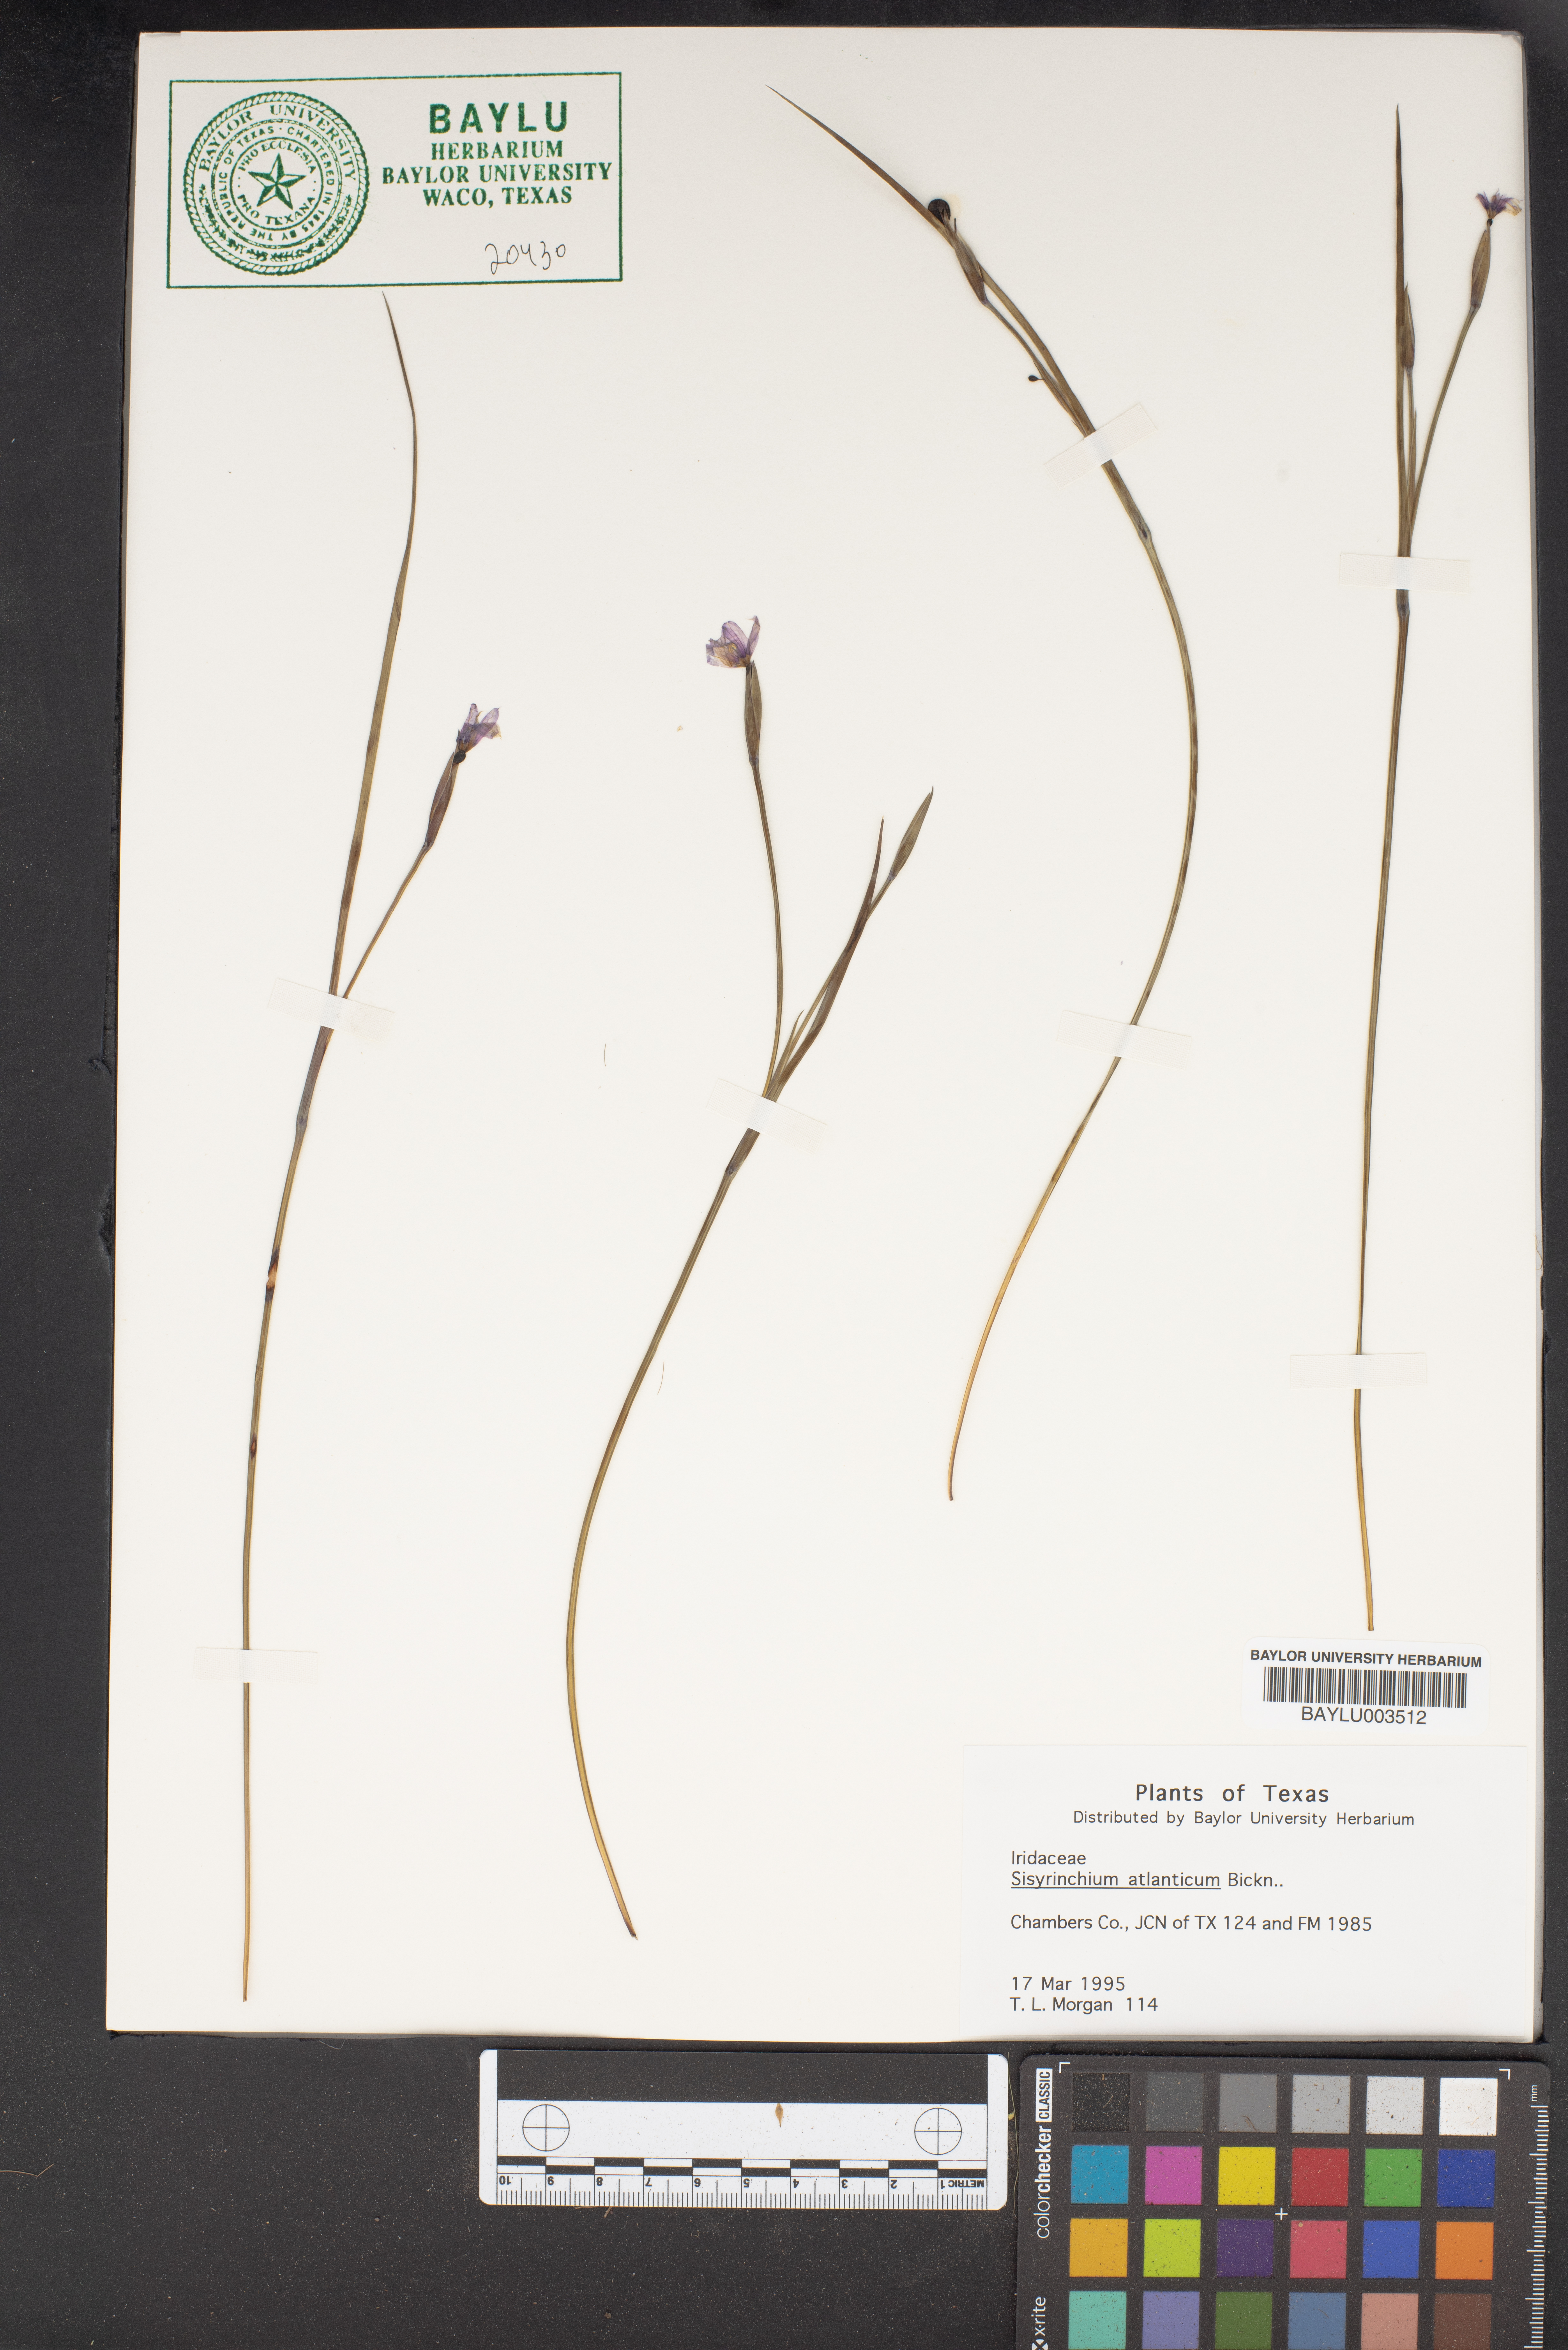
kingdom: Plantae
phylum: Tracheophyta
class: Liliopsida
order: Asparagales
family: Iridaceae
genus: Sisyrinchium
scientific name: Sisyrinchium atlanticum
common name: Eastern blue-eyed-grass
